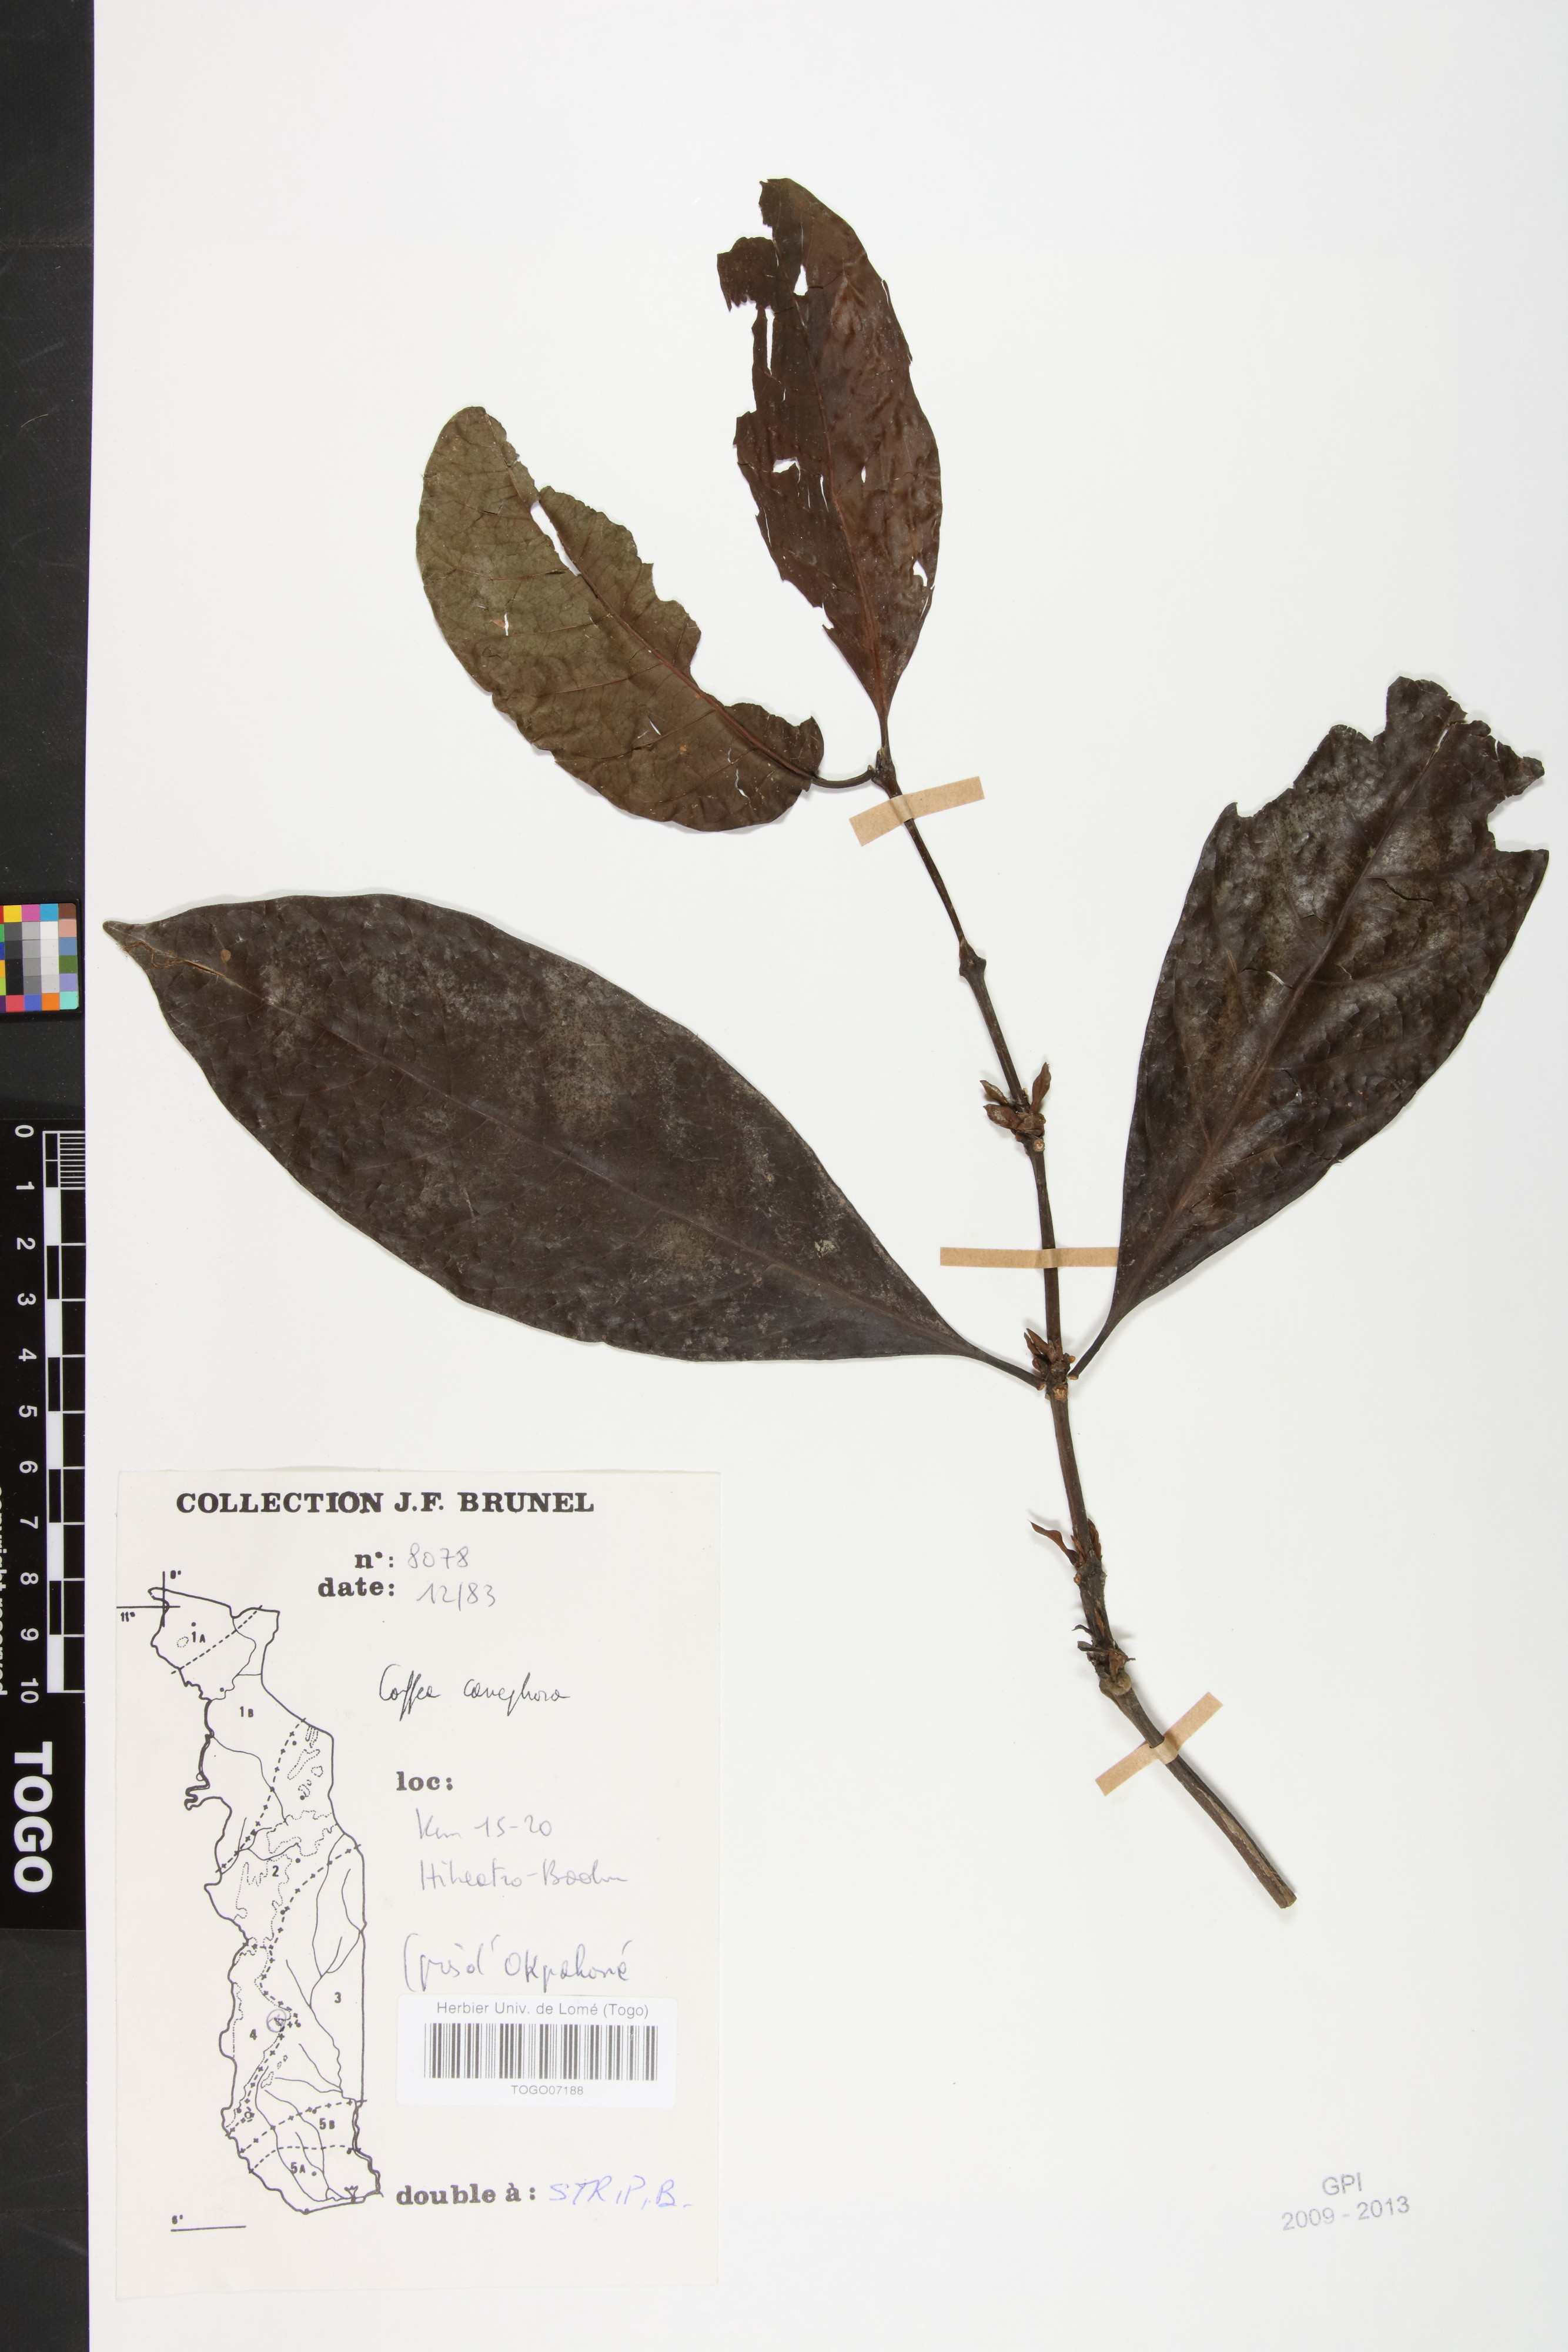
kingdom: Plantae
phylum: Tracheophyta
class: Magnoliopsida
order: Gentianales
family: Rubiaceae
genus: Coffea
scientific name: Coffea canephora
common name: Robusta coffee
